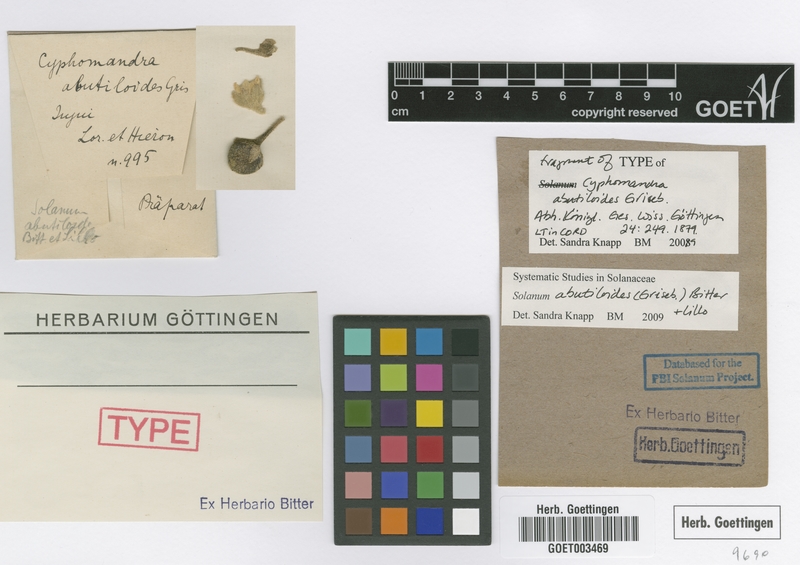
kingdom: Plantae
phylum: Tracheophyta
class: Magnoliopsida
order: Solanales
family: Solanaceae
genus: Solanum
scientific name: Solanum abutiloides
